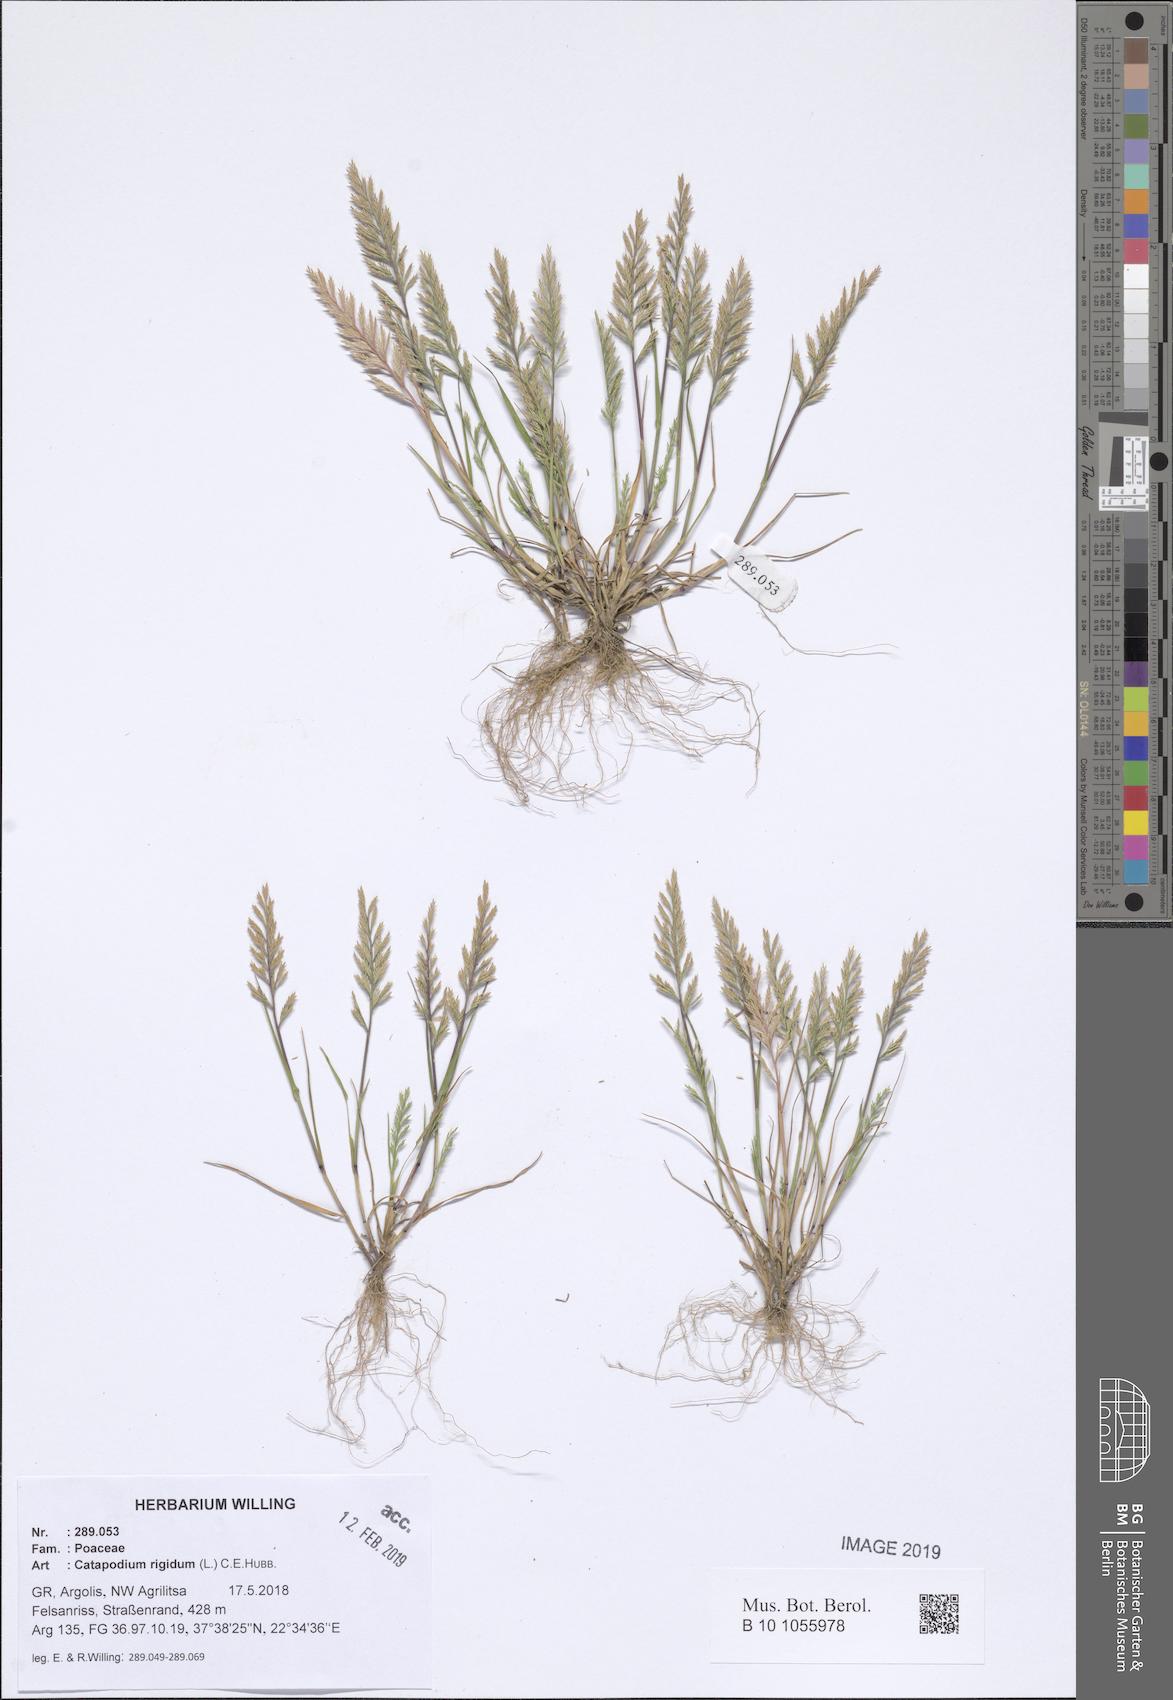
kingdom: Plantae
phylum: Tracheophyta
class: Liliopsida
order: Poales
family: Poaceae
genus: Catapodium
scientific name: Catapodium rigidum
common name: Fern-grass
